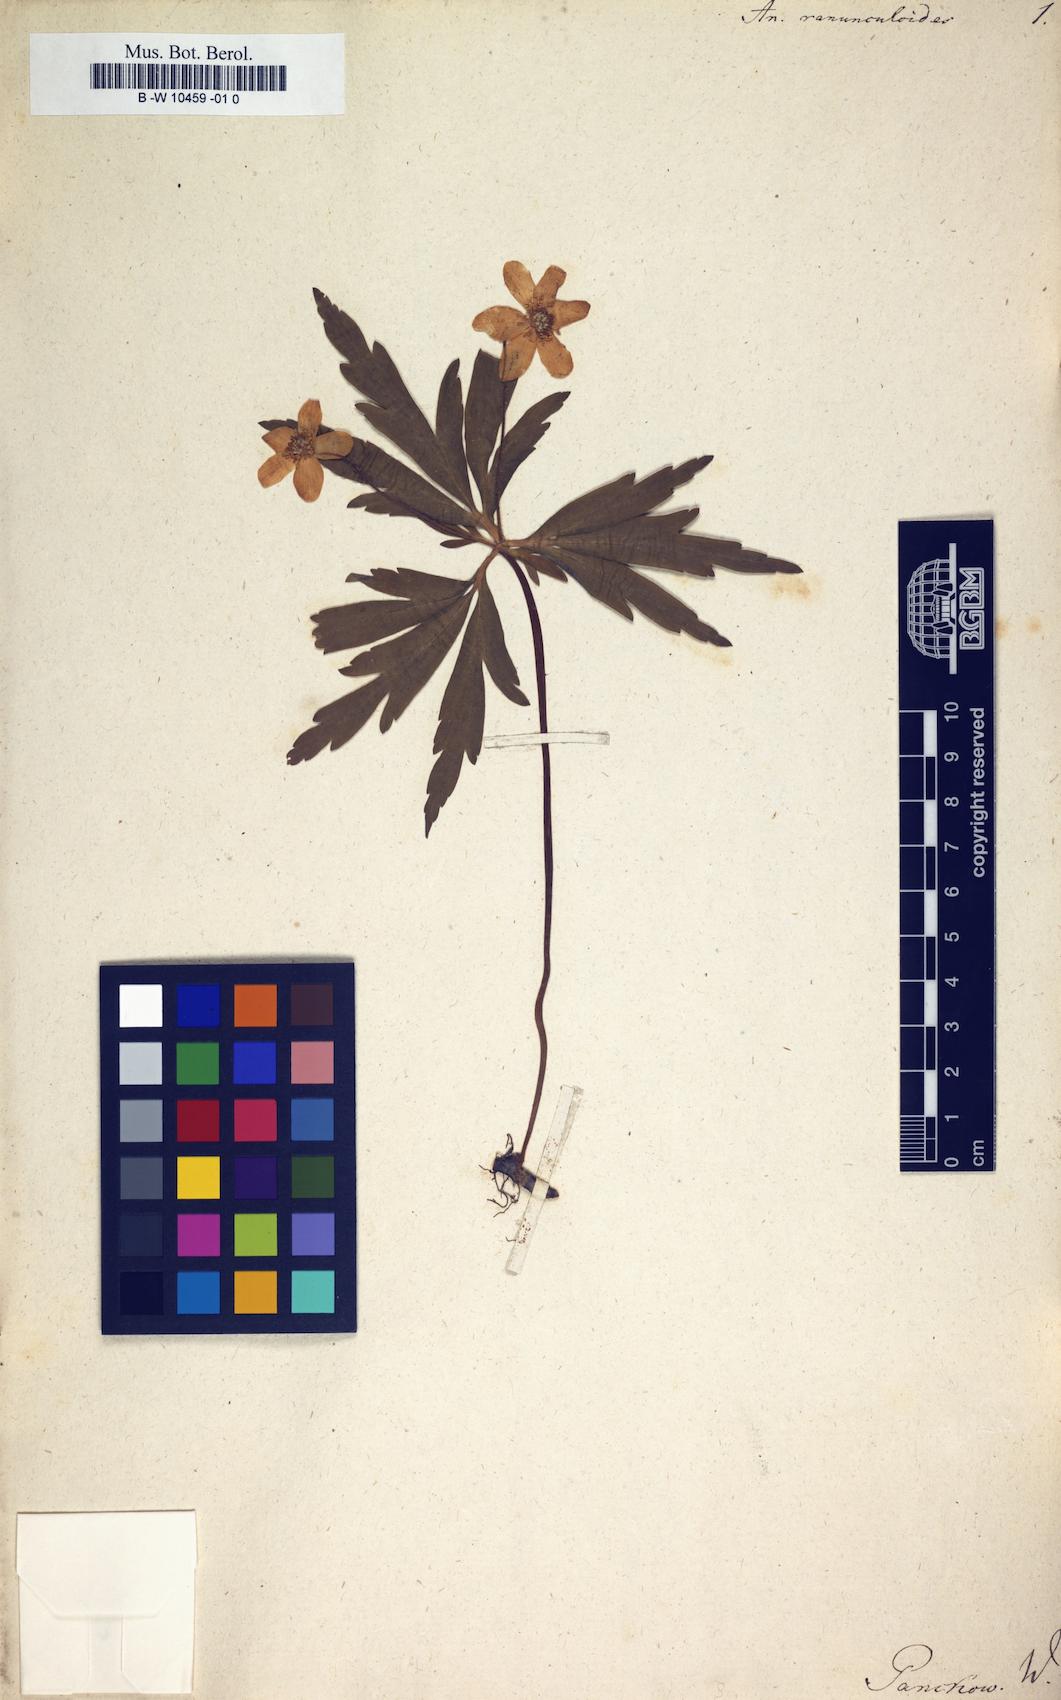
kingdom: Plantae
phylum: Tracheophyta
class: Magnoliopsida
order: Ranunculales
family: Ranunculaceae
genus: Anemone
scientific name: Anemone ranunculoides
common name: Yellow anemone
